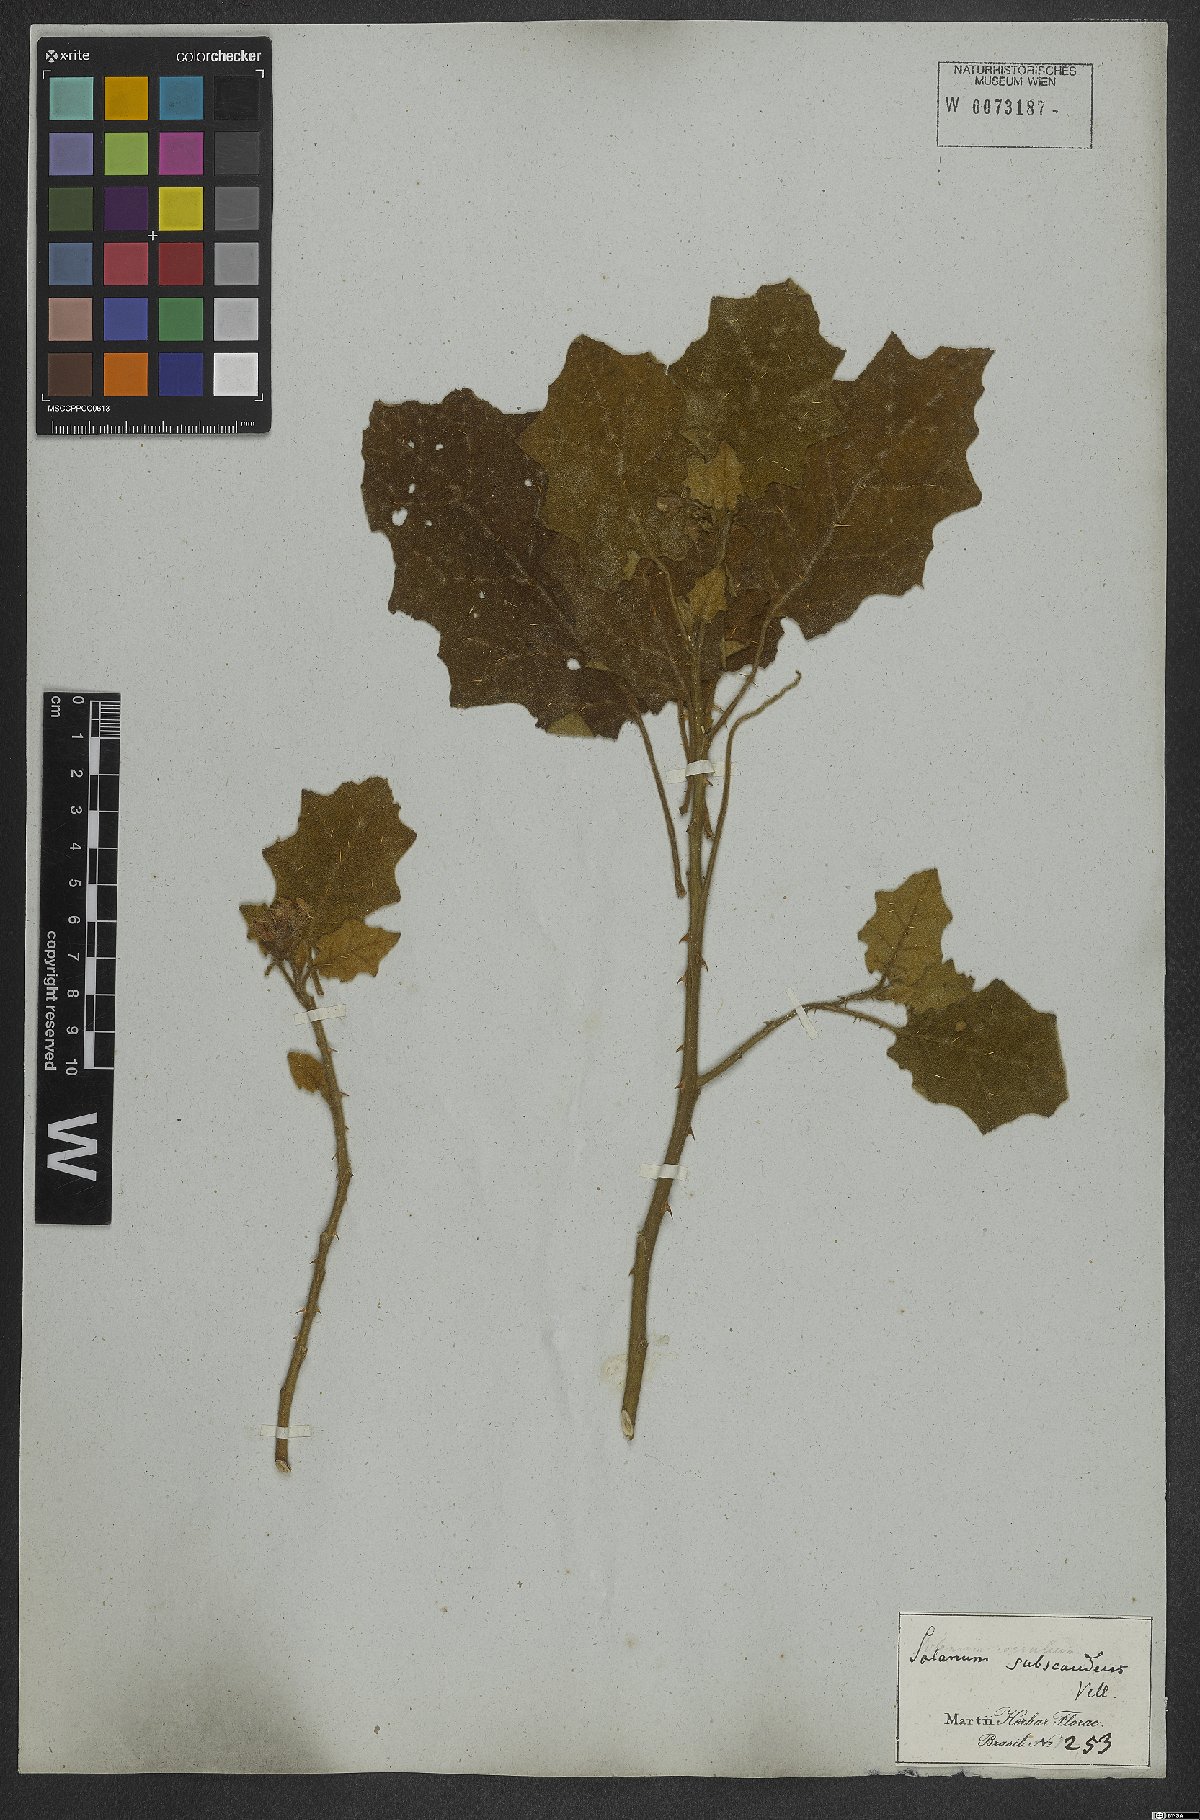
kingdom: Plantae
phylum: Tracheophyta
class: Magnoliopsida
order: Solanales
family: Solanaceae
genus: Solanum
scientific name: Solanum cordifolium
